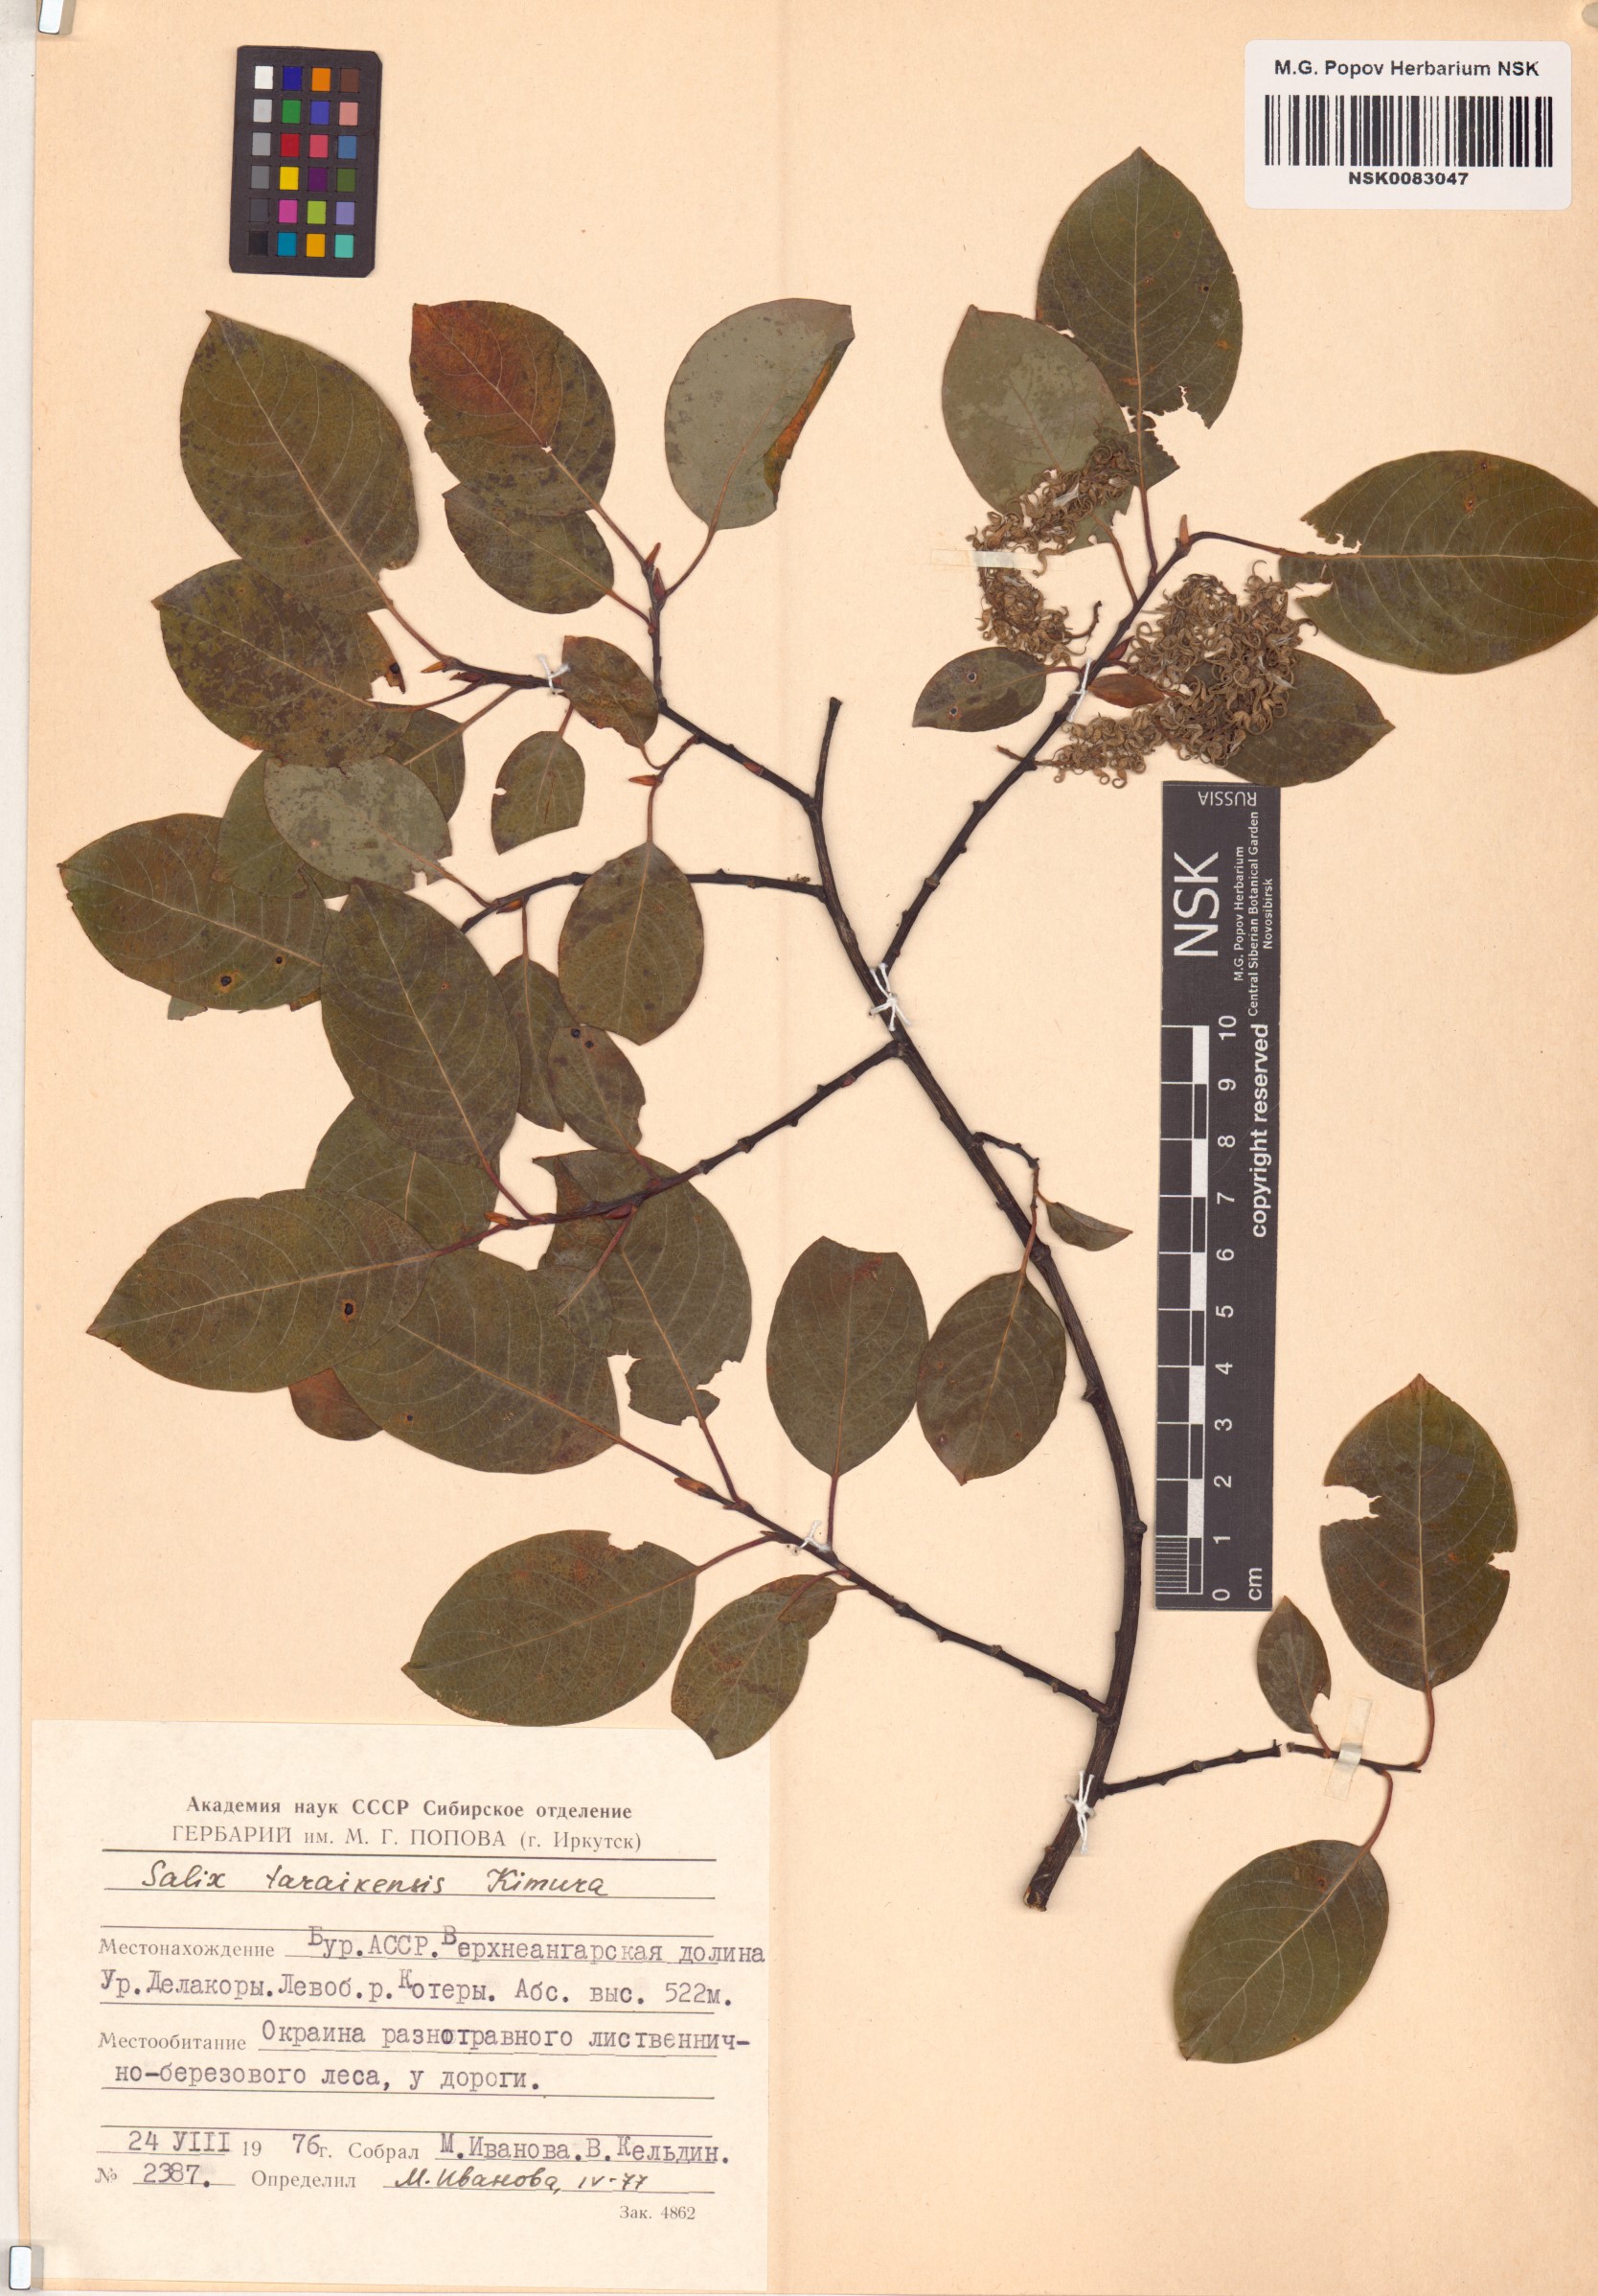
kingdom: Plantae
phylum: Tracheophyta
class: Magnoliopsida
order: Malpighiales
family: Salicaceae
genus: Salix
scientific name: Salix taraikensis
